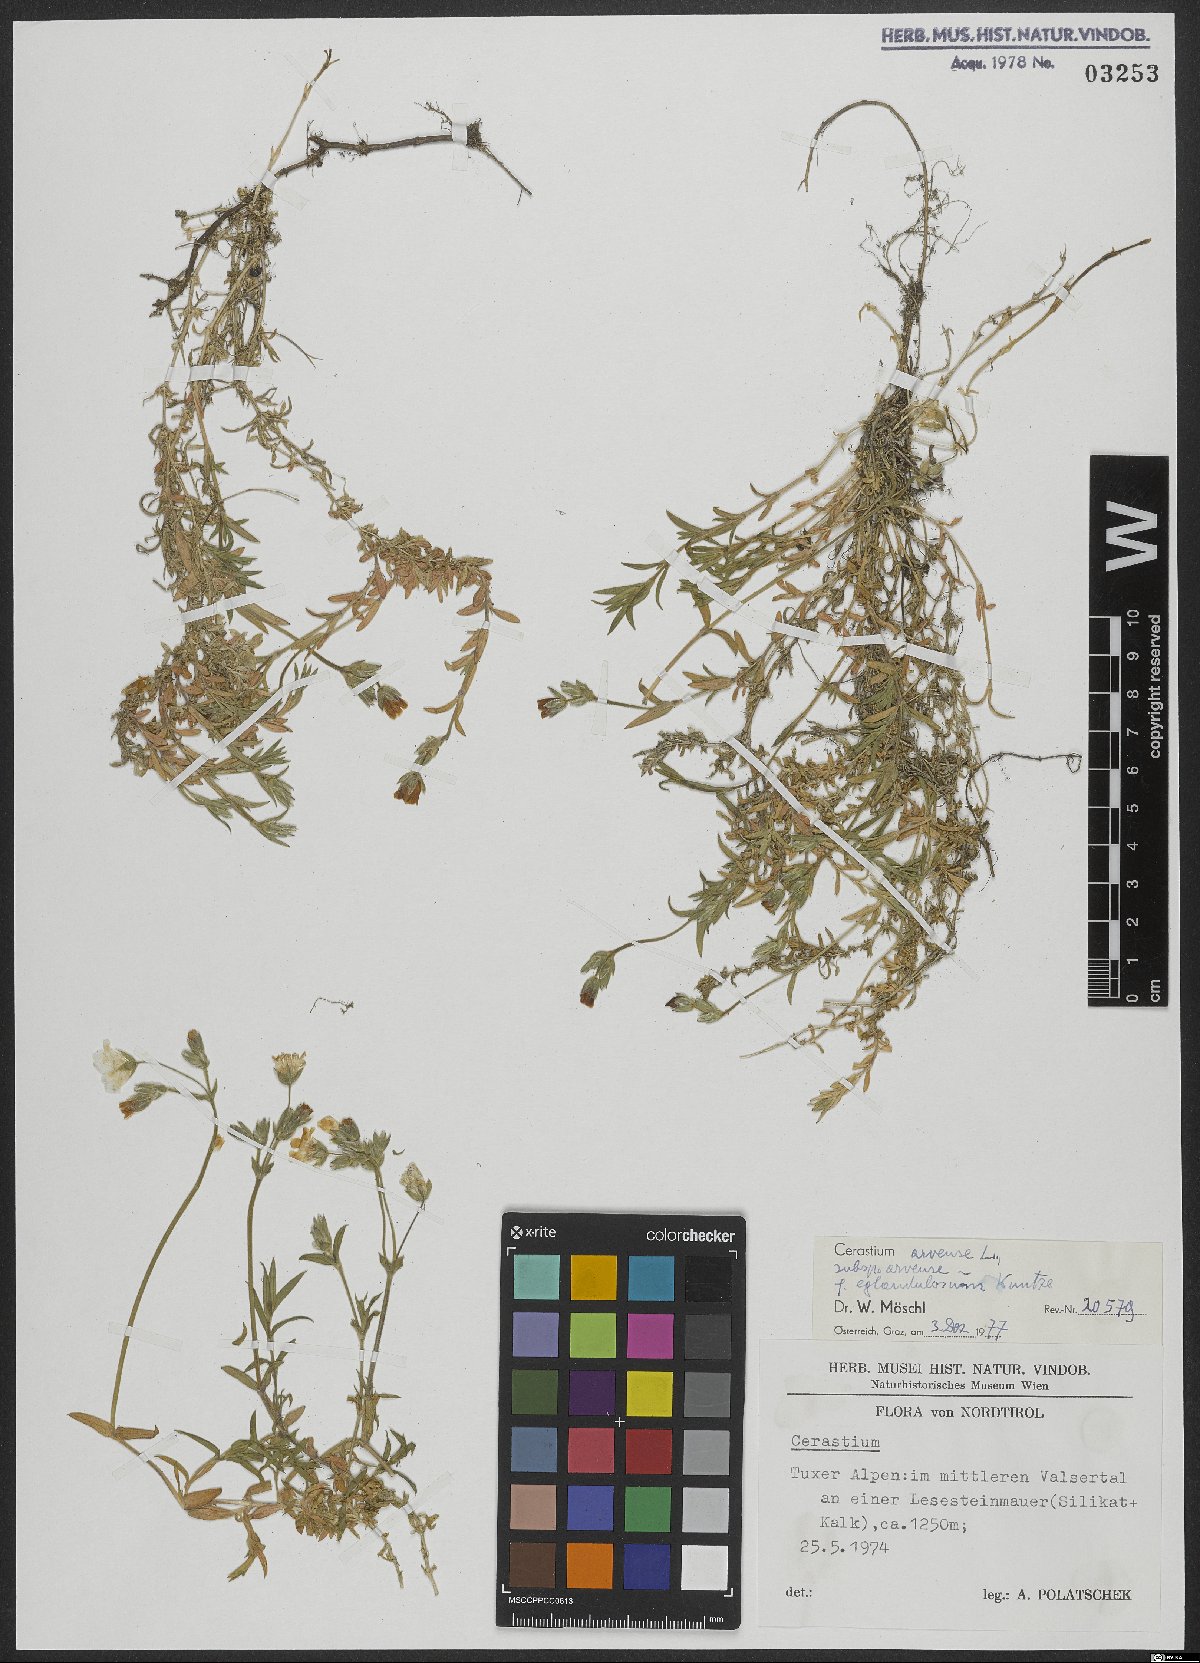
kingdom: Plantae
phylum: Tracheophyta
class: Magnoliopsida
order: Caryophyllales
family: Caryophyllaceae
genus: Cerastium
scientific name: Cerastium arvense
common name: Field mouse-ear
